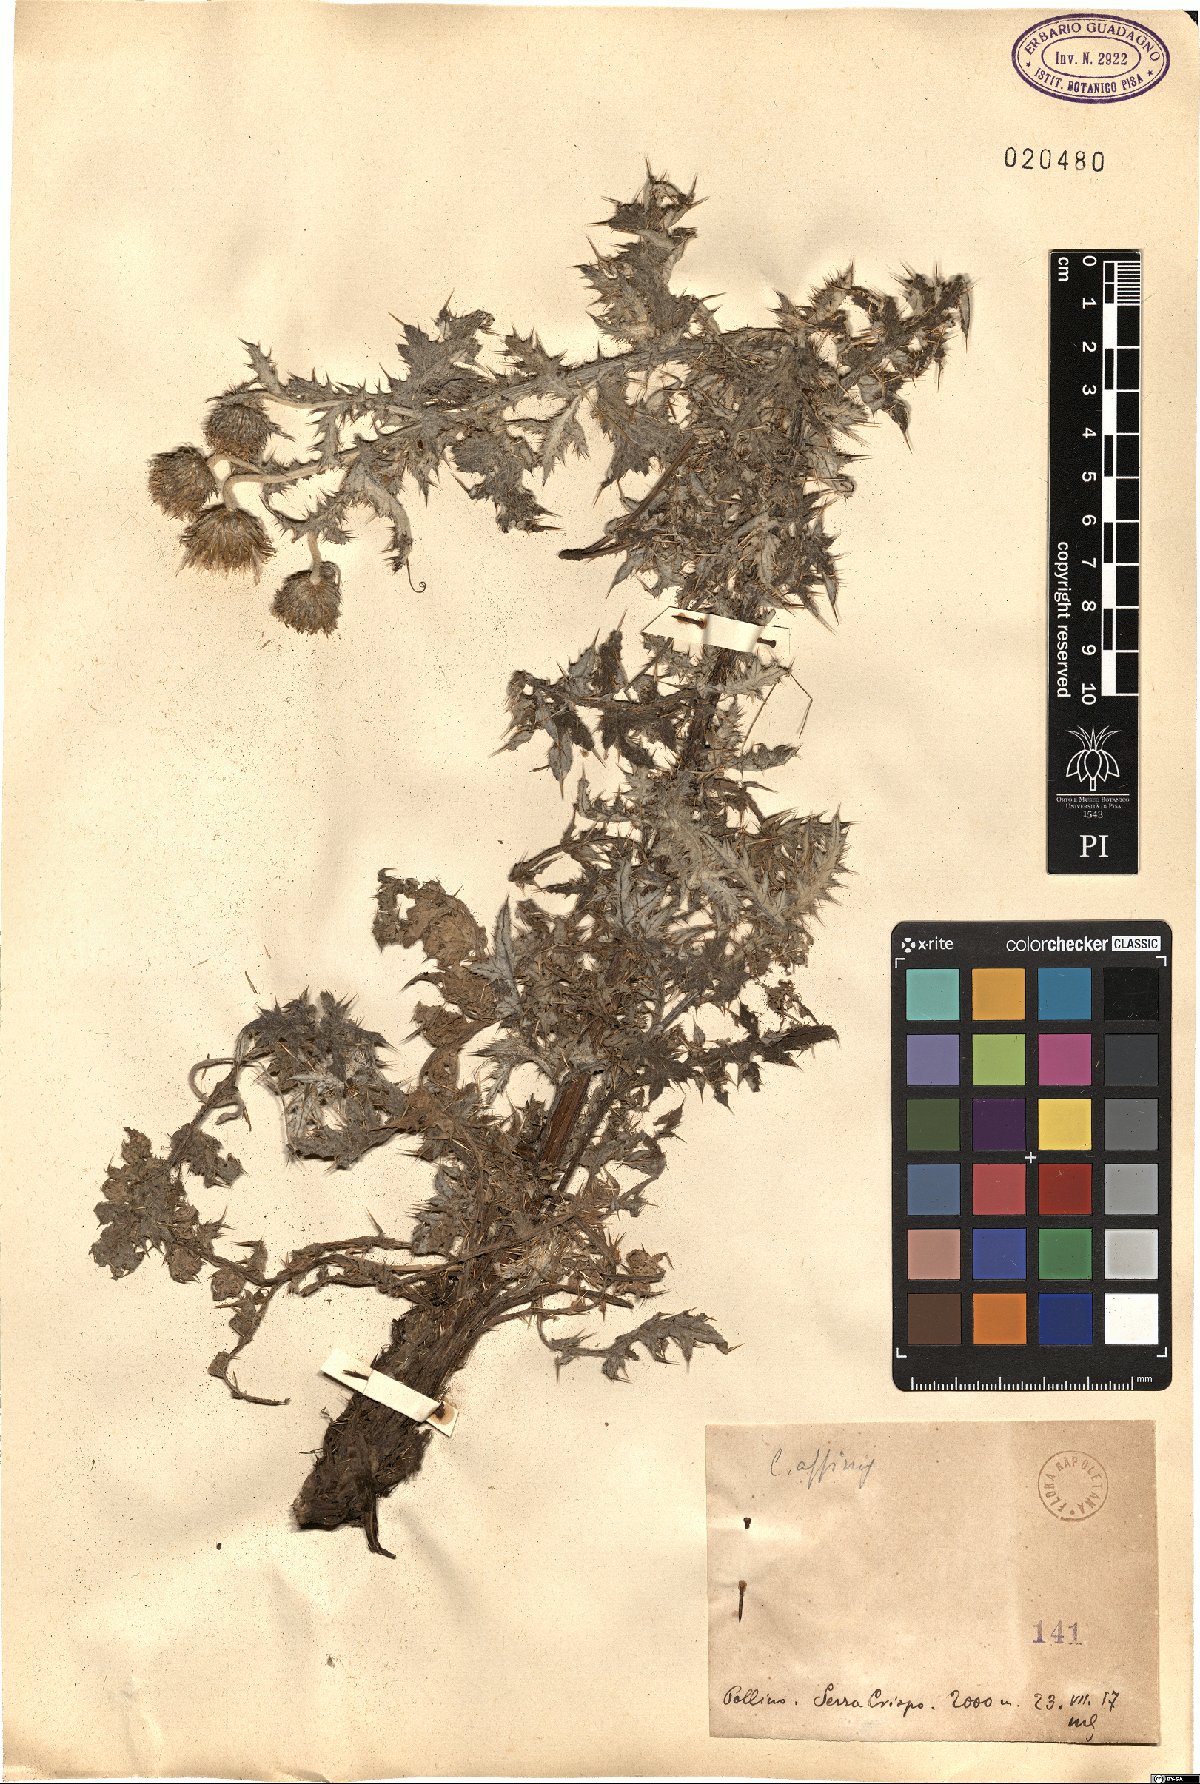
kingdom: Plantae
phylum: Tracheophyta
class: Magnoliopsida
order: Asterales
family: Asteraceae
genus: Carduus
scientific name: Carduus affinis
